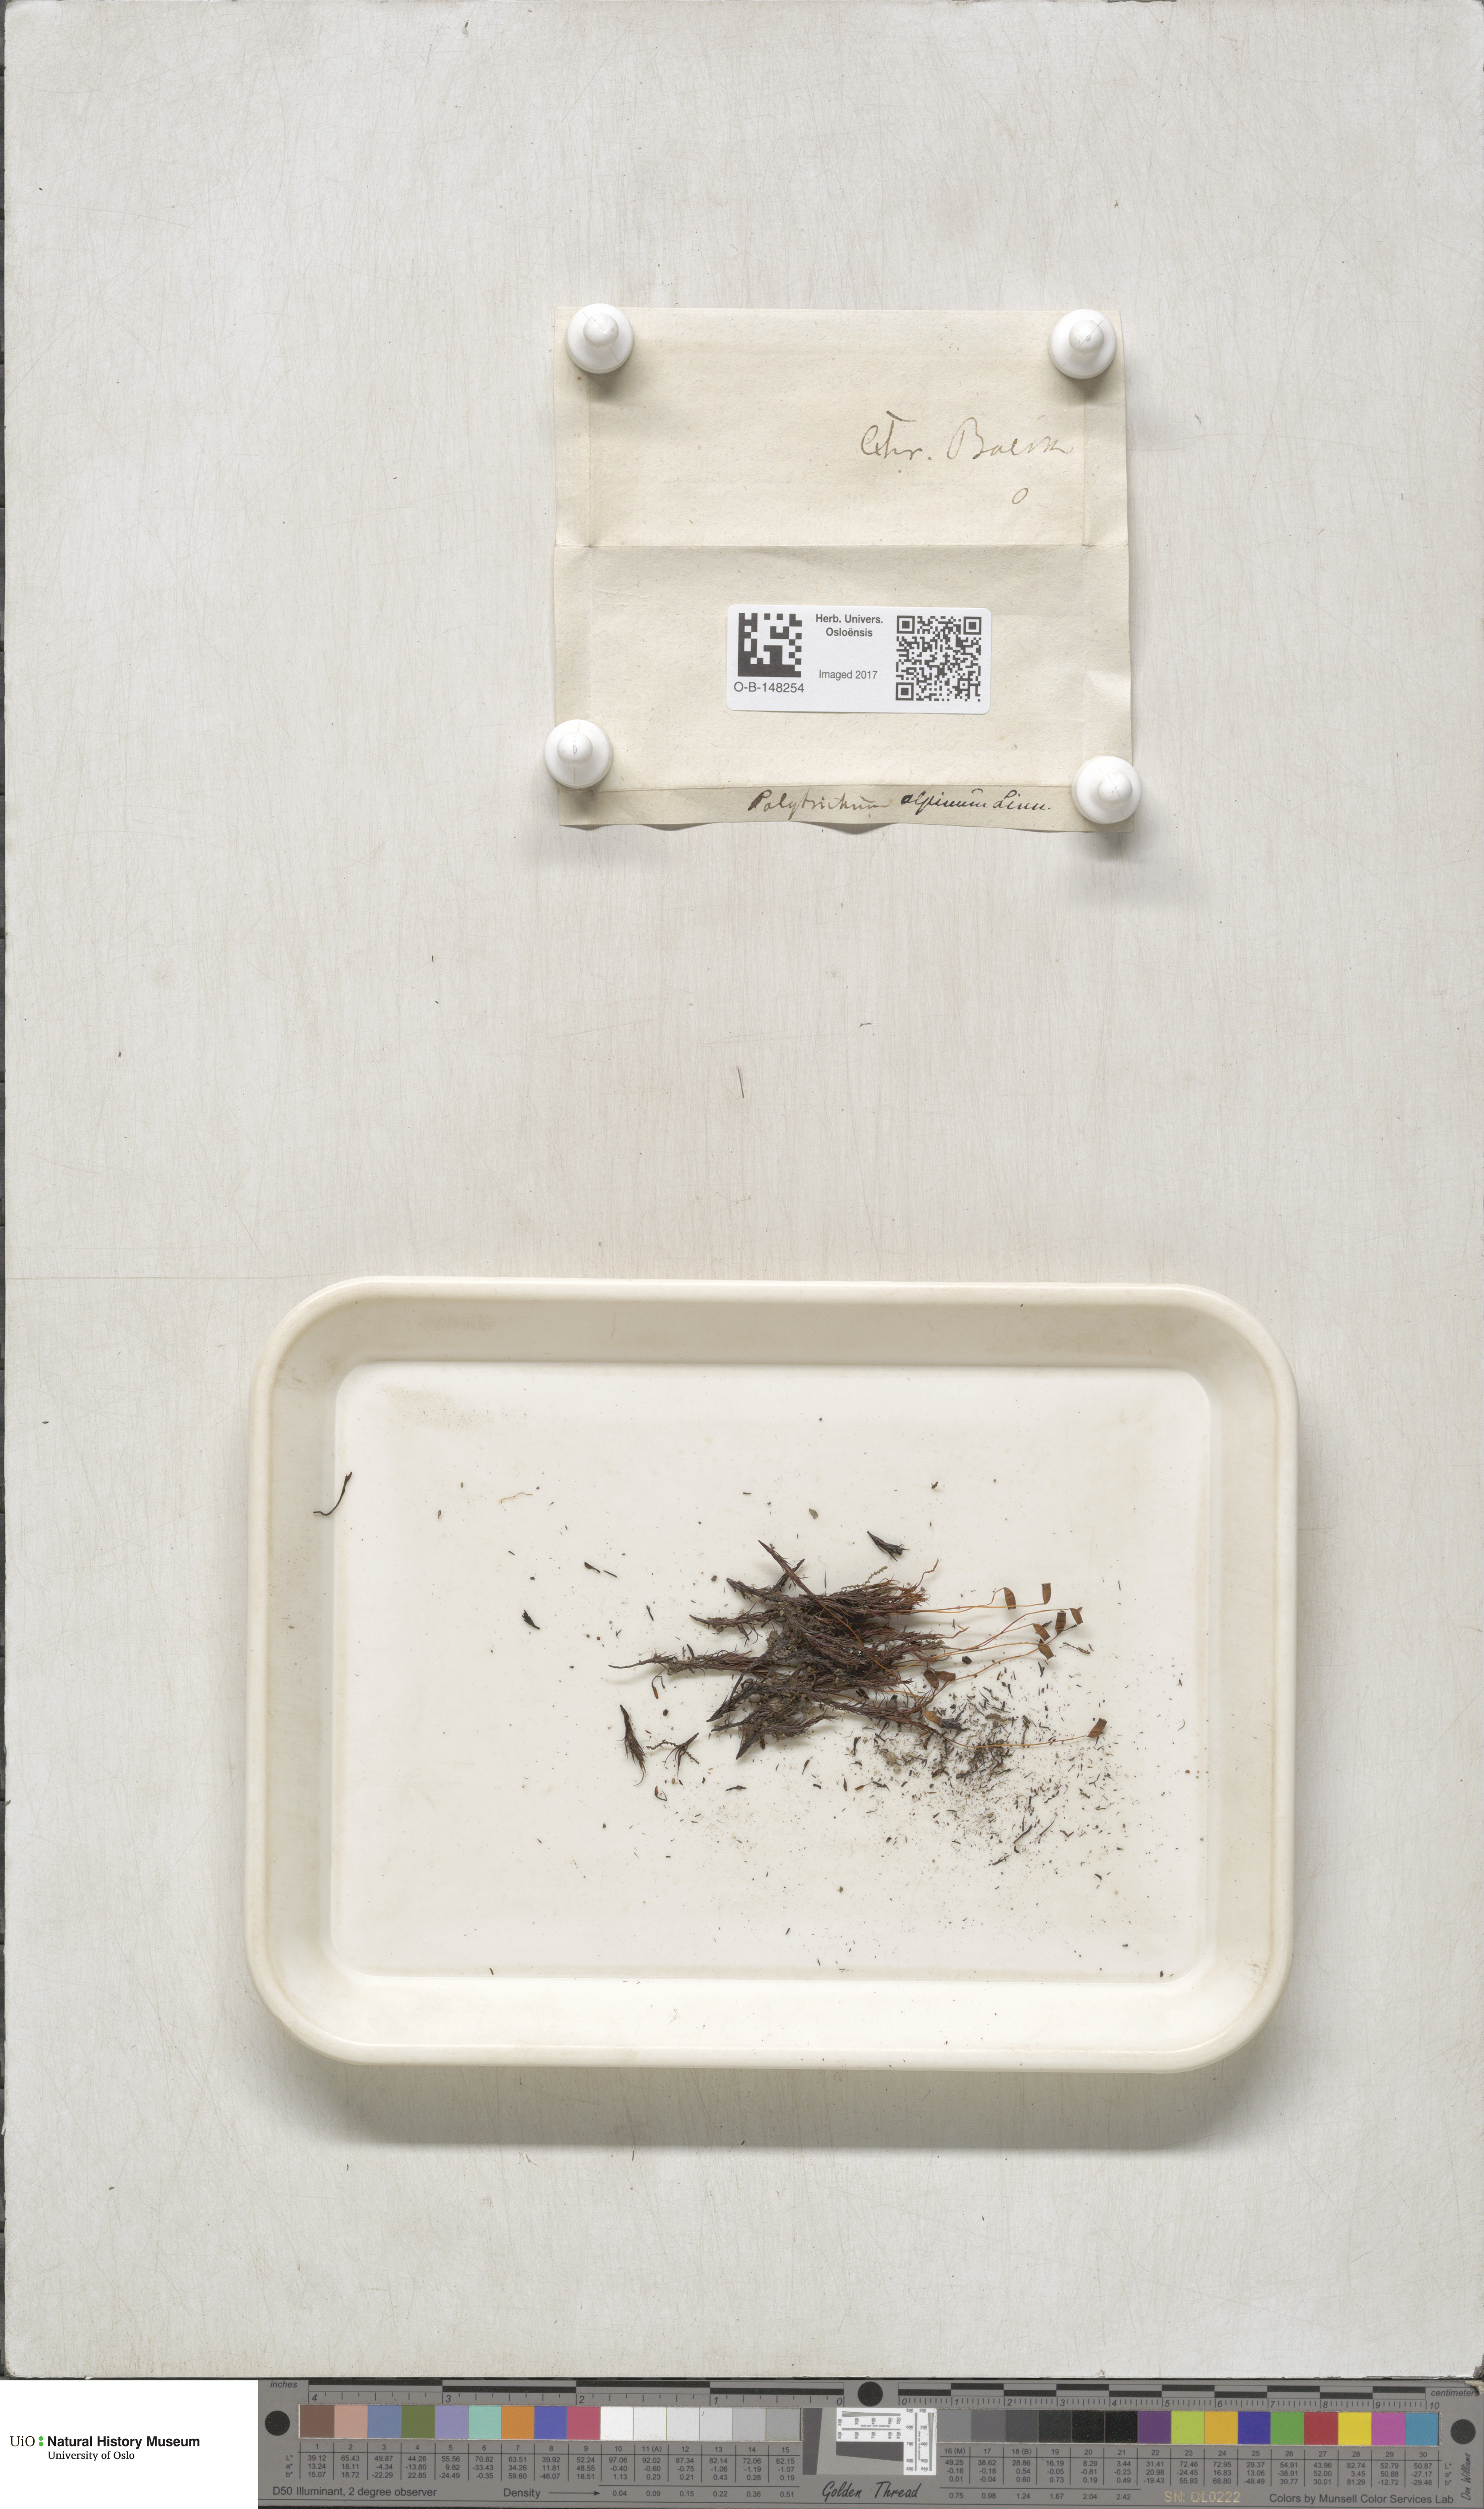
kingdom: Plantae
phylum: Bryophyta
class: Polytrichopsida
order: Polytrichales
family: Polytrichaceae
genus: Polytrichastrum
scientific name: Polytrichastrum alpinum
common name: Alpine haircap
